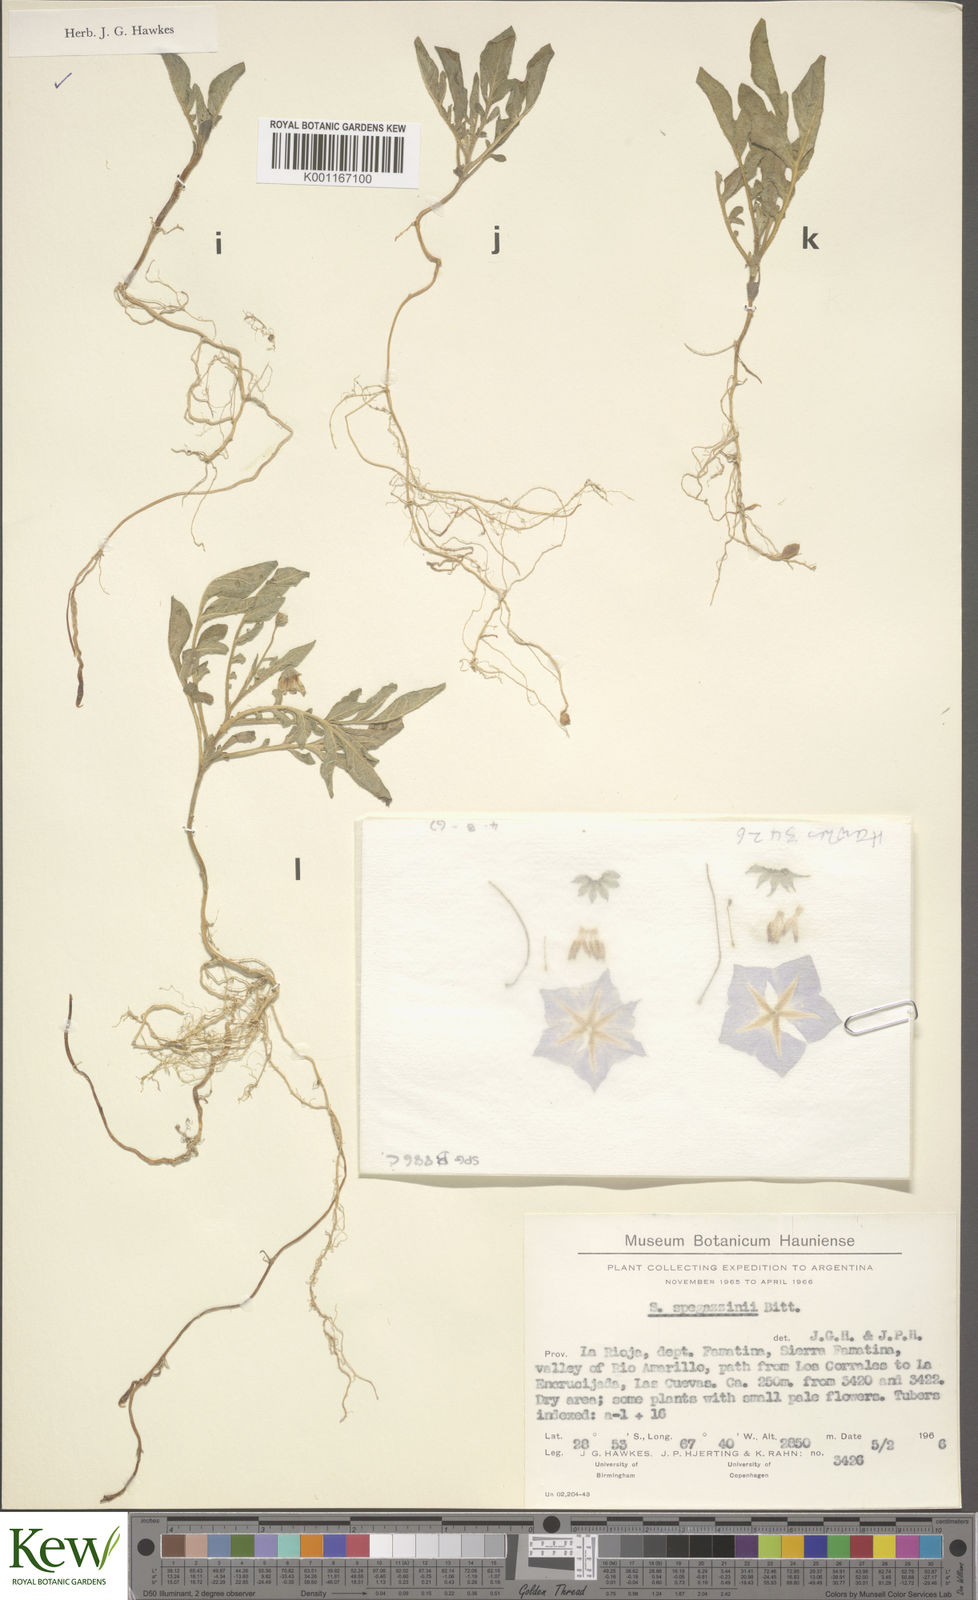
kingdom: Plantae
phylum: Tracheophyta
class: Magnoliopsida
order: Solanales
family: Solanaceae
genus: Solanum
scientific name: Solanum brevicaule
